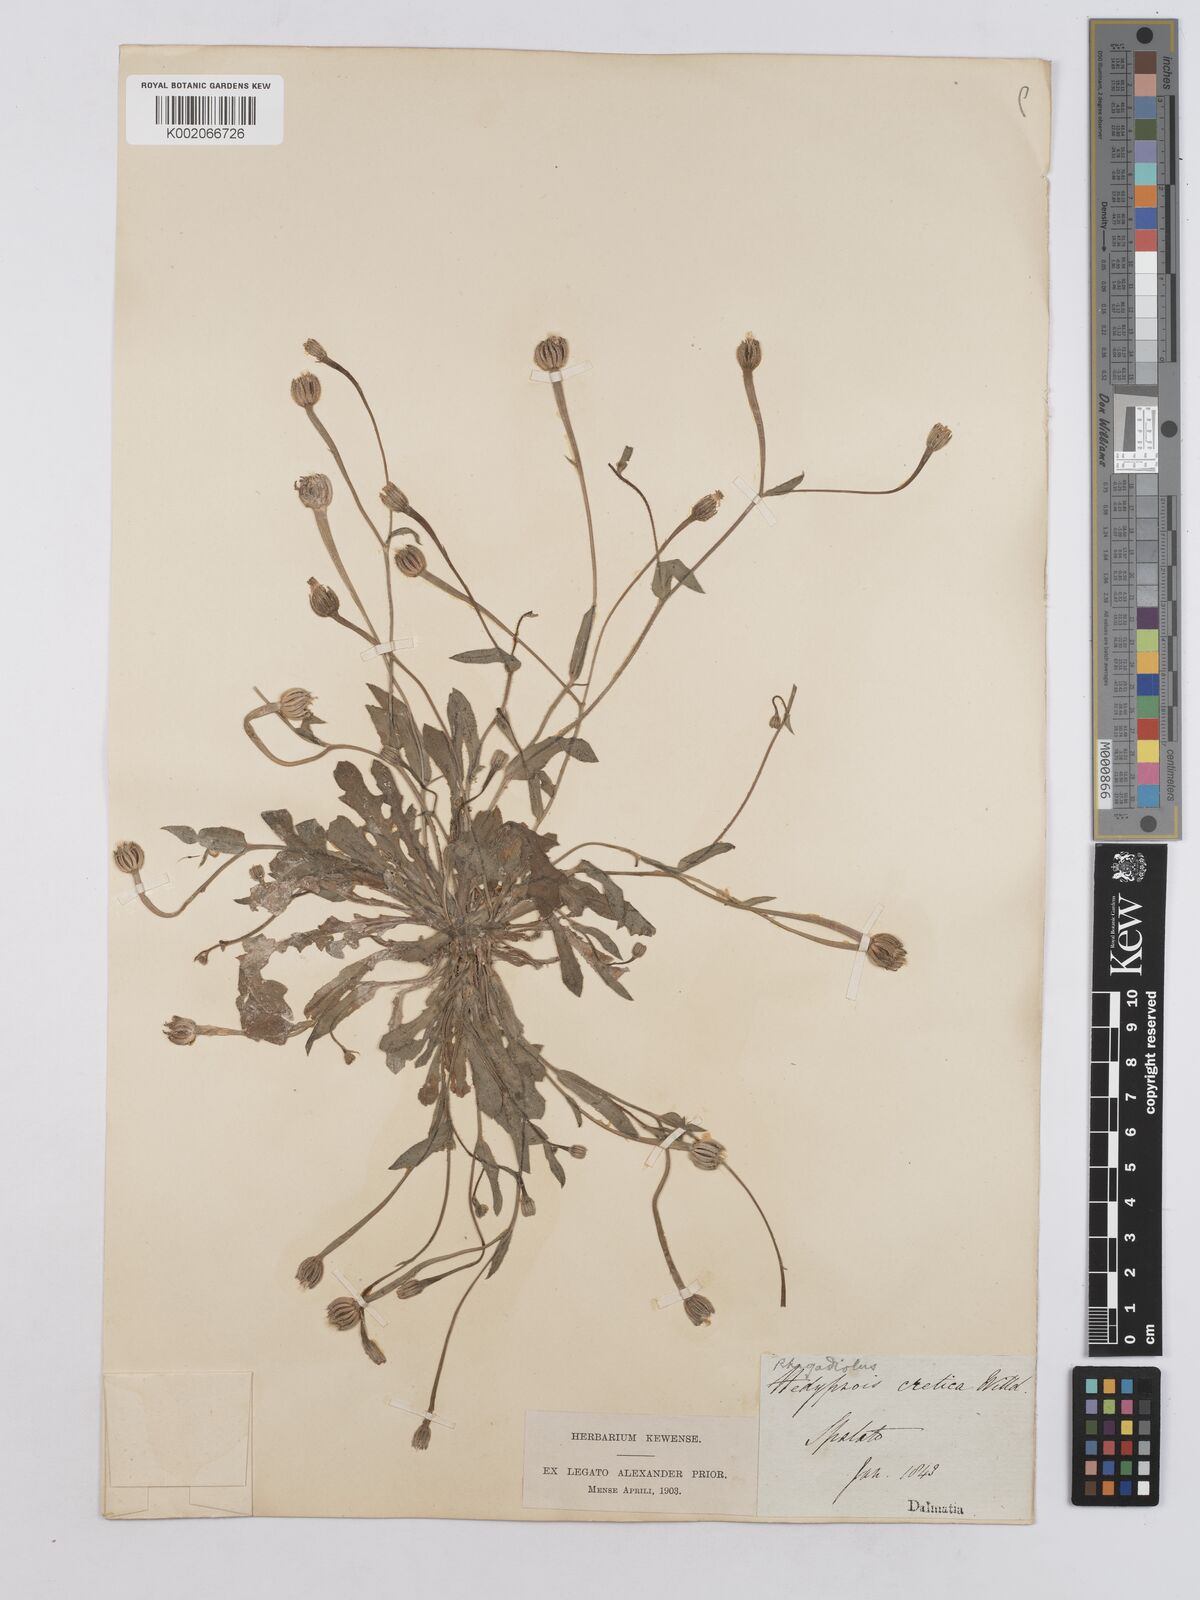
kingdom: Plantae
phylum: Tracheophyta
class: Magnoliopsida
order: Asterales
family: Asteraceae
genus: Hedypnois
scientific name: Hedypnois rhagadioloides
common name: Cretan weed
